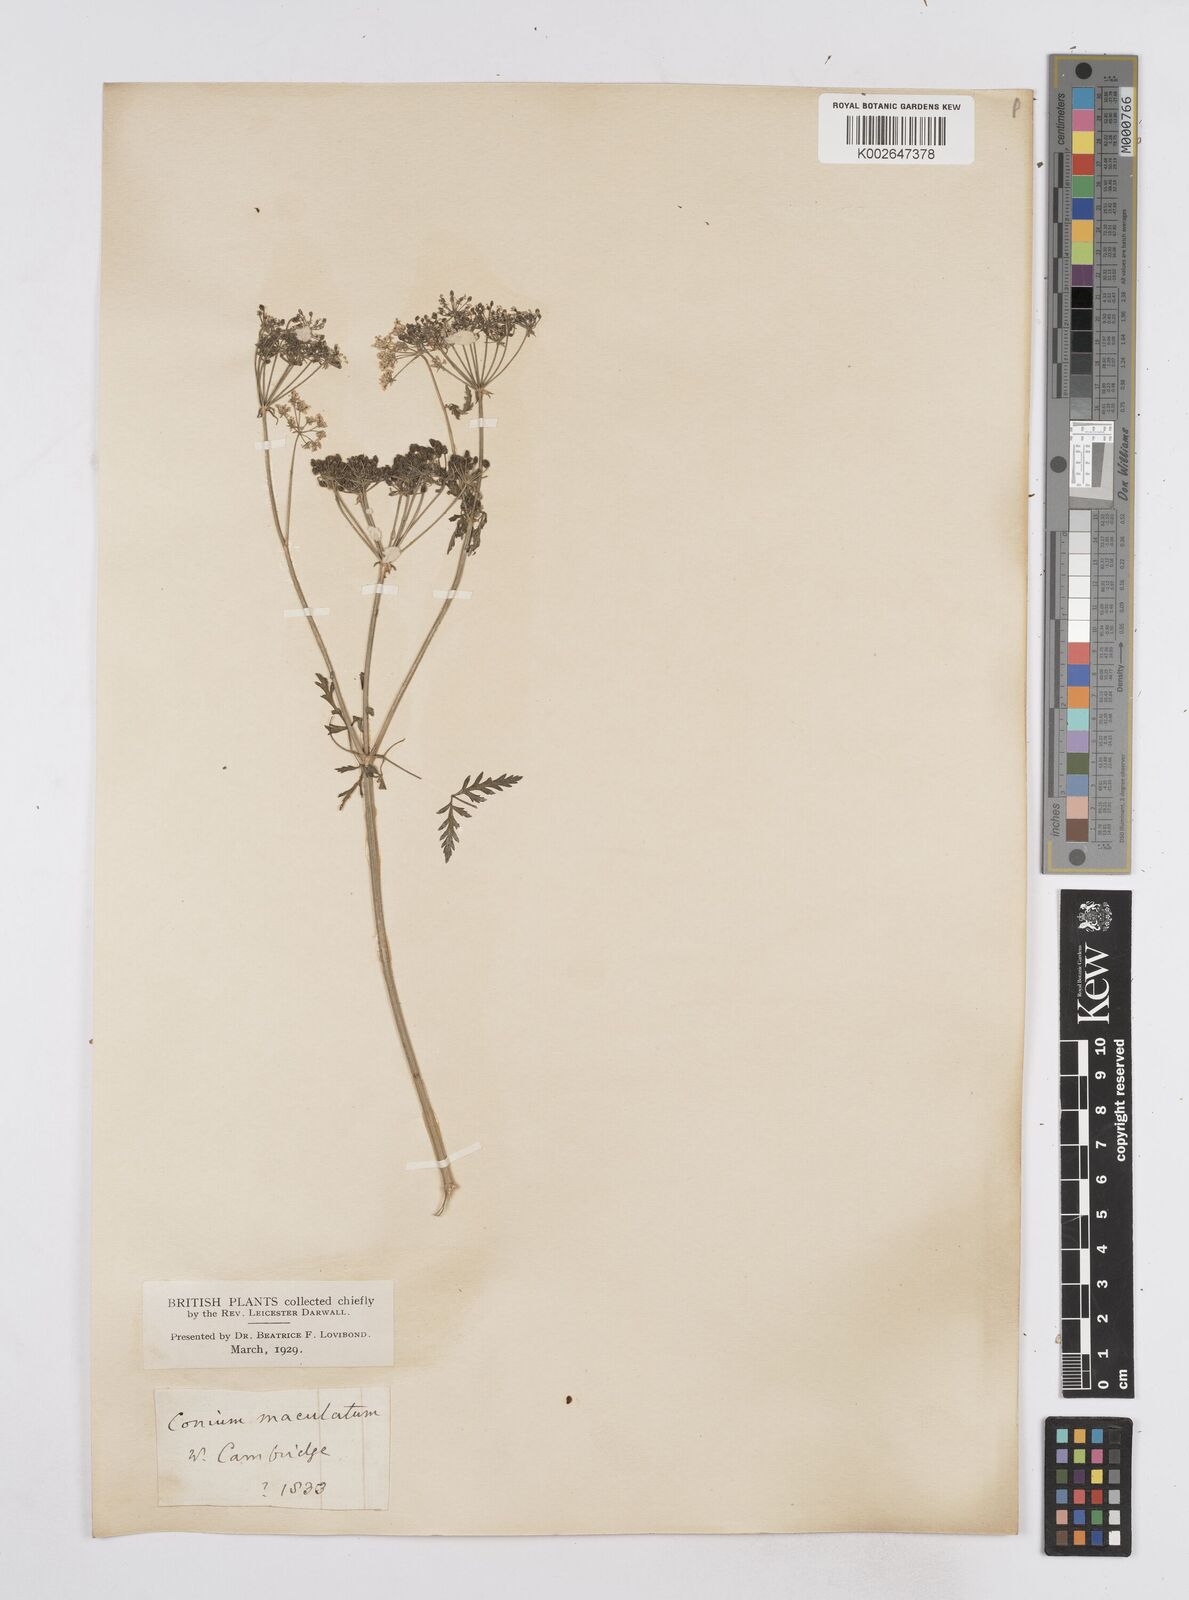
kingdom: Plantae
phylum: Tracheophyta
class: Magnoliopsida
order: Apiales
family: Apiaceae
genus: Conium
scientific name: Conium maculatum
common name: Hemlock
